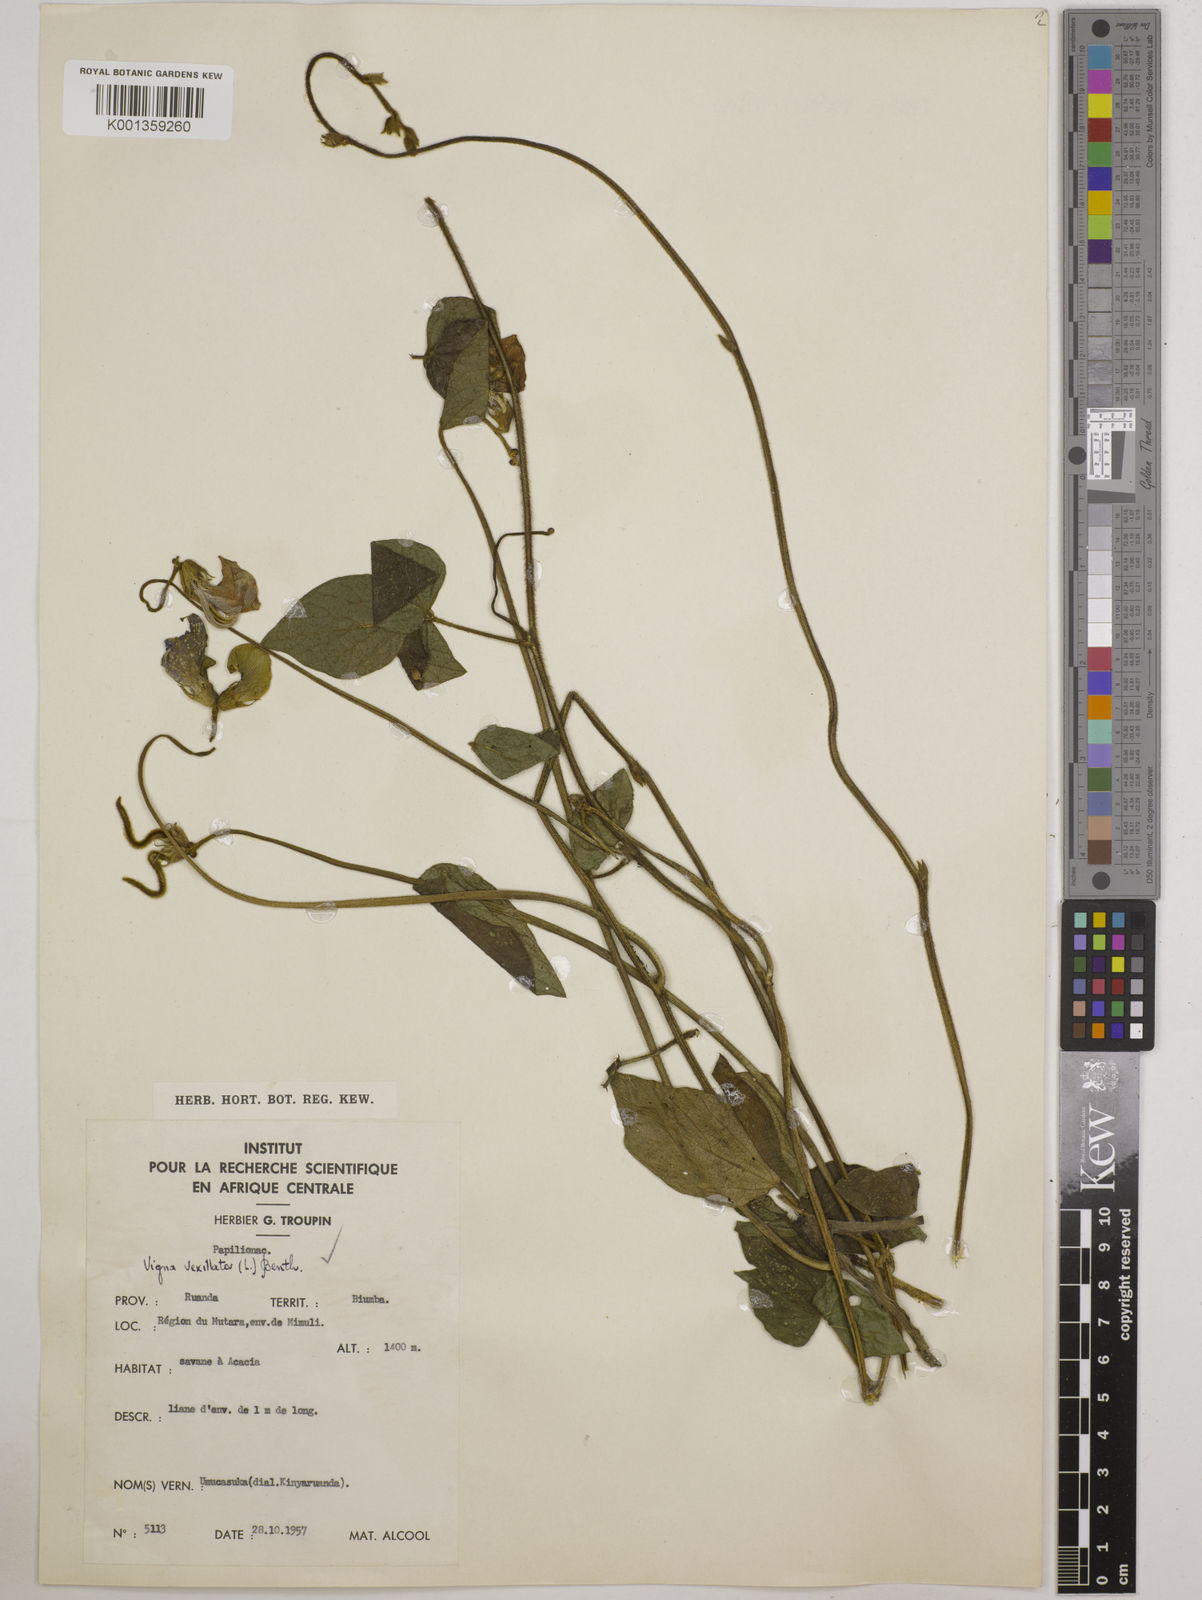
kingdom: Plantae
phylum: Tracheophyta
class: Magnoliopsida
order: Fabales
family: Fabaceae
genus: Vigna
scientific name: Vigna vexillata
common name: Zombi pea
